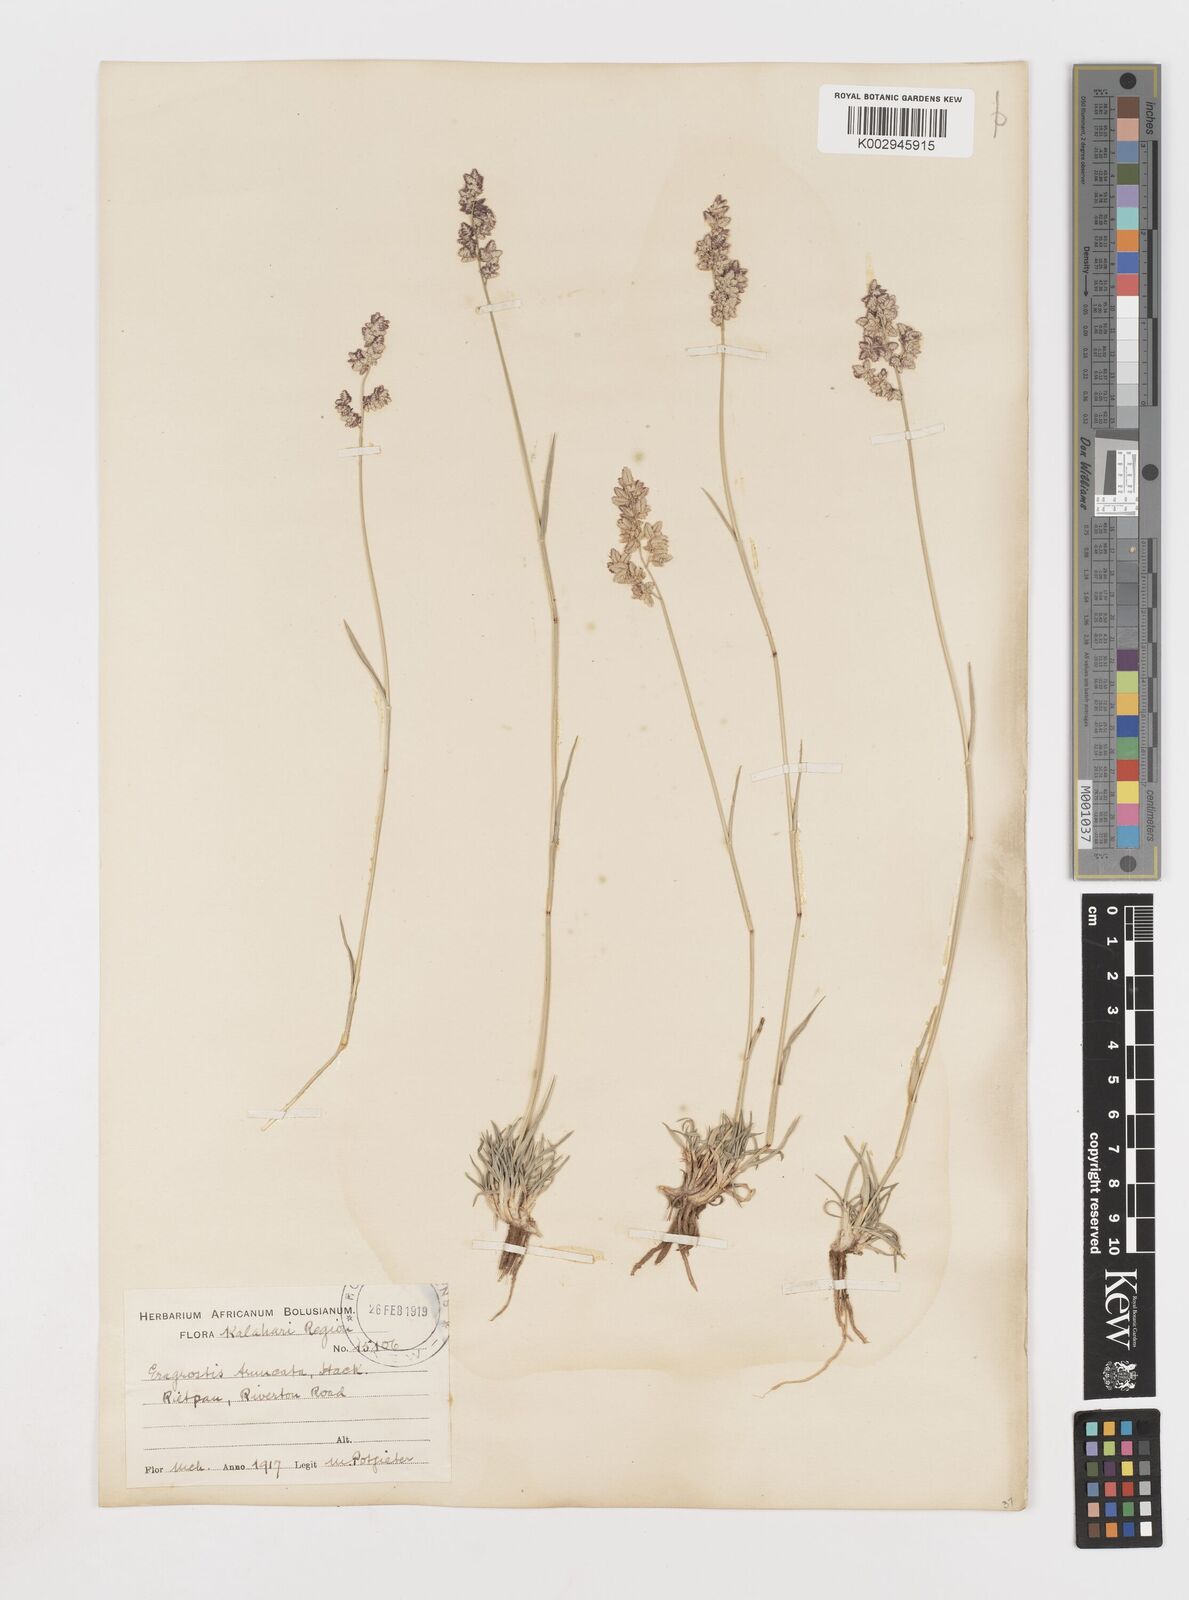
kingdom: Plantae
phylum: Tracheophyta
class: Liliopsida
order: Poales
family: Poaceae
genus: Eragrostis
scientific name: Eragrostis truncata
